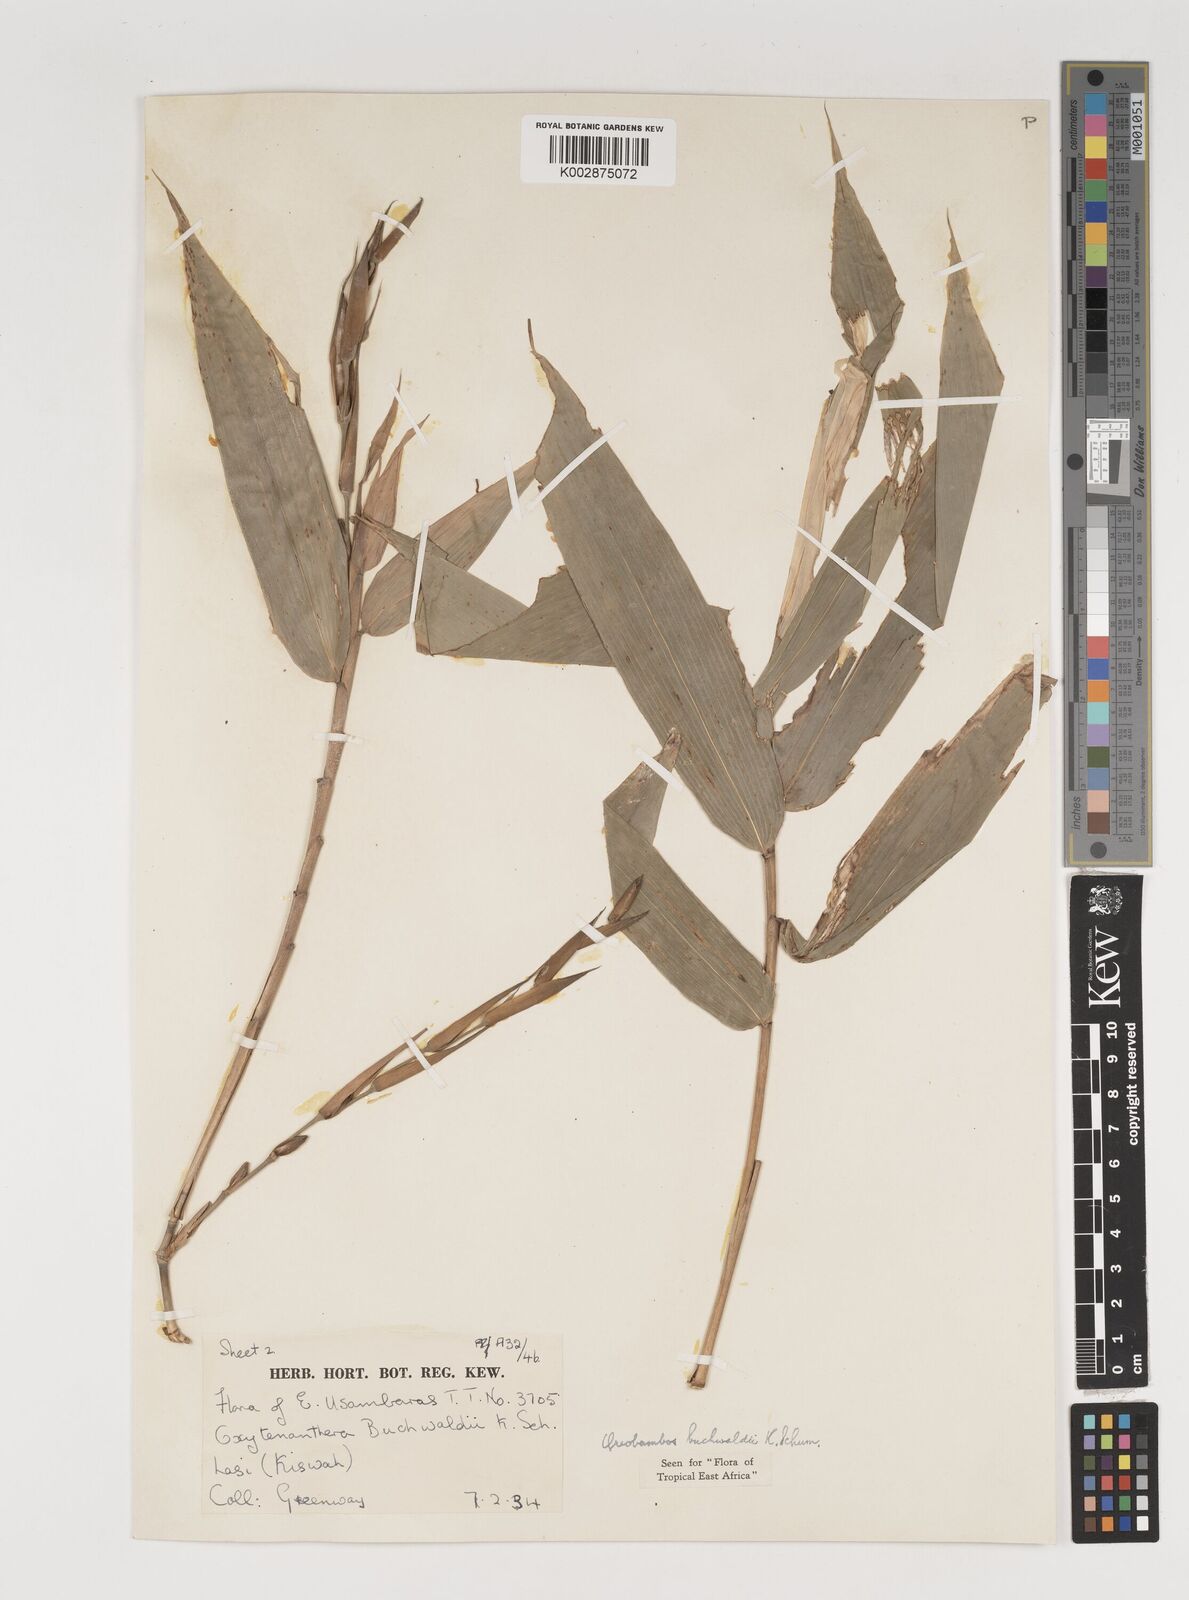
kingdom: Plantae
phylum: Tracheophyta
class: Liliopsida
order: Poales
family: Poaceae
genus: Oreobambos
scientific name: Oreobambos buchwaldii
